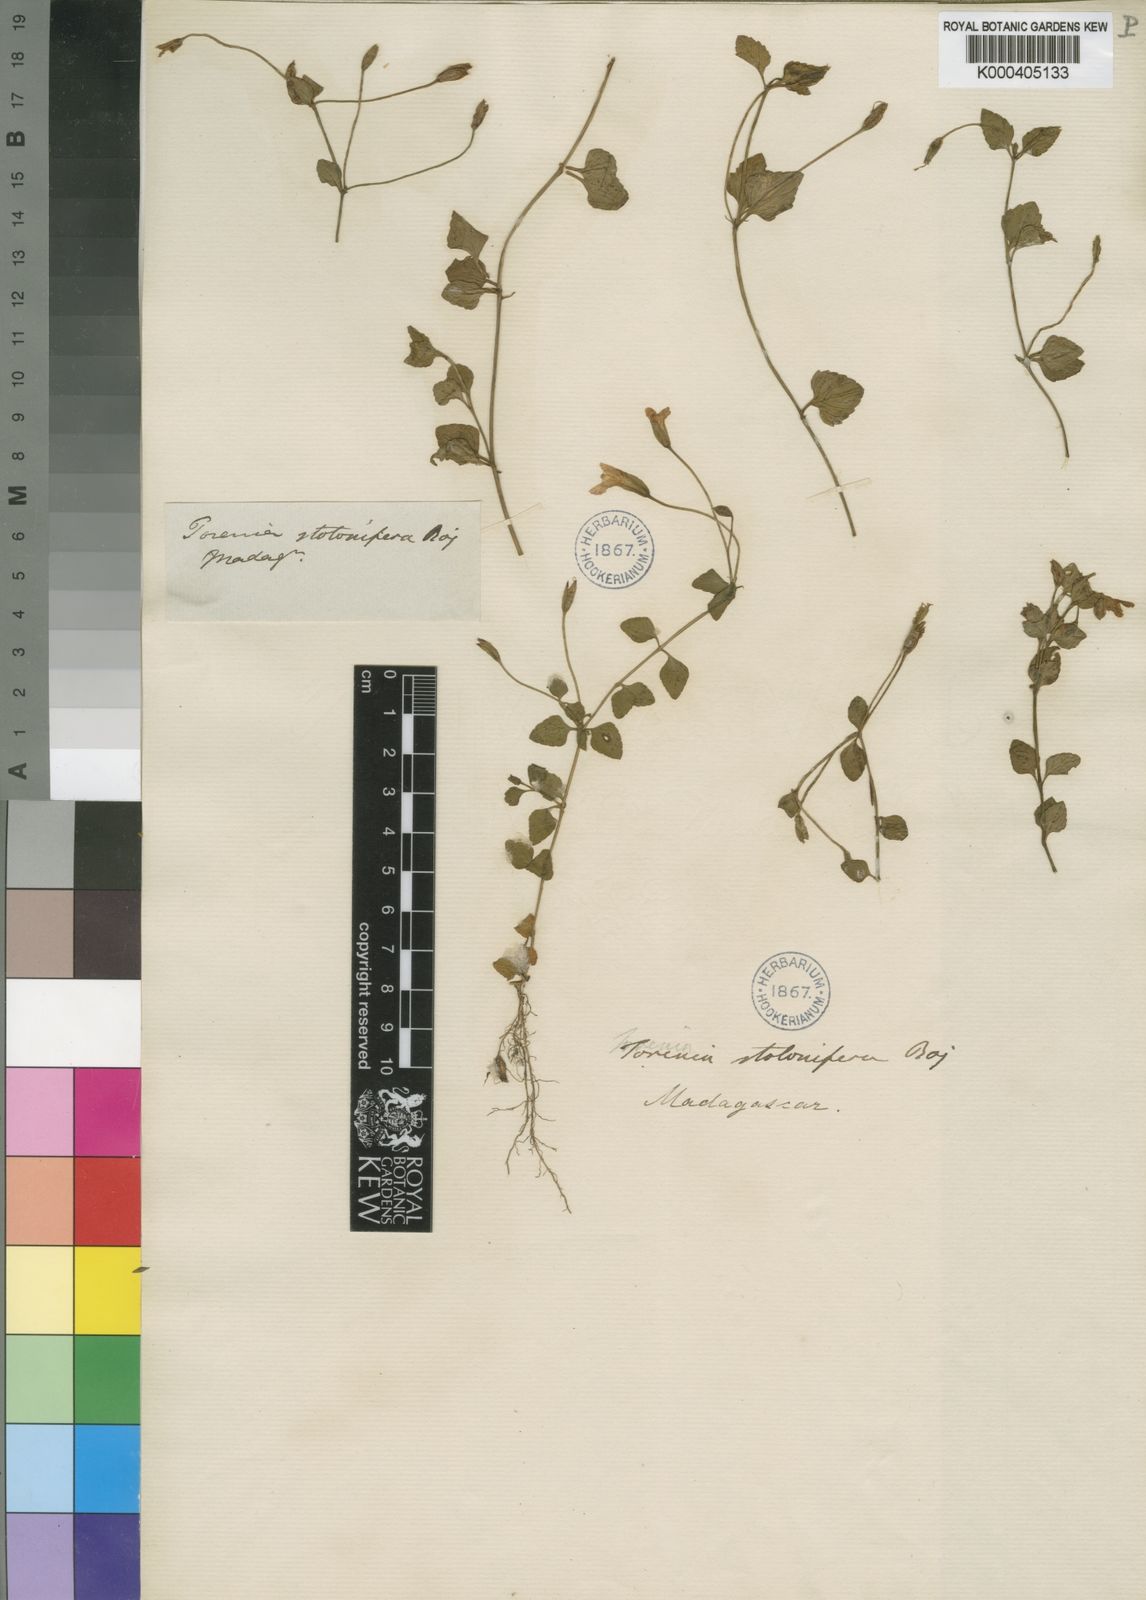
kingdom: Plantae
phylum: Tracheophyta
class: Magnoliopsida
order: Lamiales
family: Linderniaceae
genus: Torenia
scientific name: Torenia stolonifera
